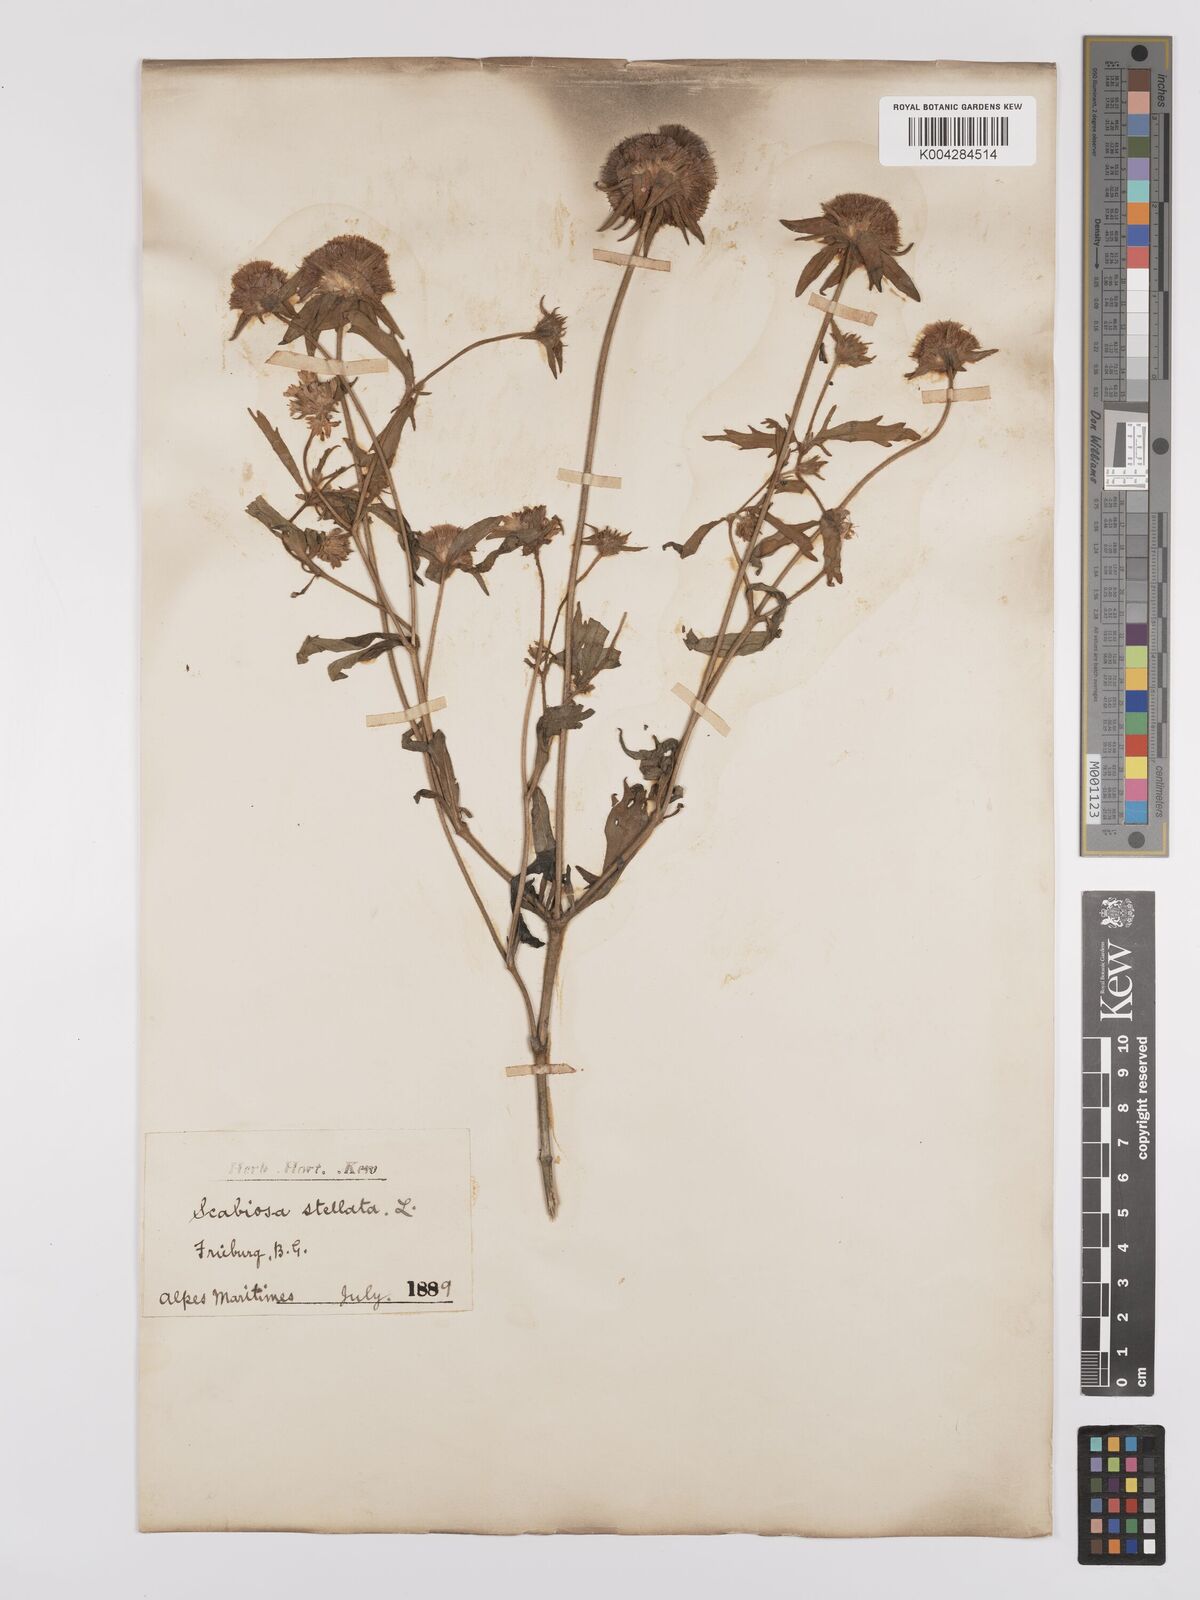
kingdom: Plantae
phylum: Tracheophyta
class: Magnoliopsida
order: Dipsacales
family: Caprifoliaceae
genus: Lomelosia
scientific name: Lomelosia stellata
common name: Teasel
